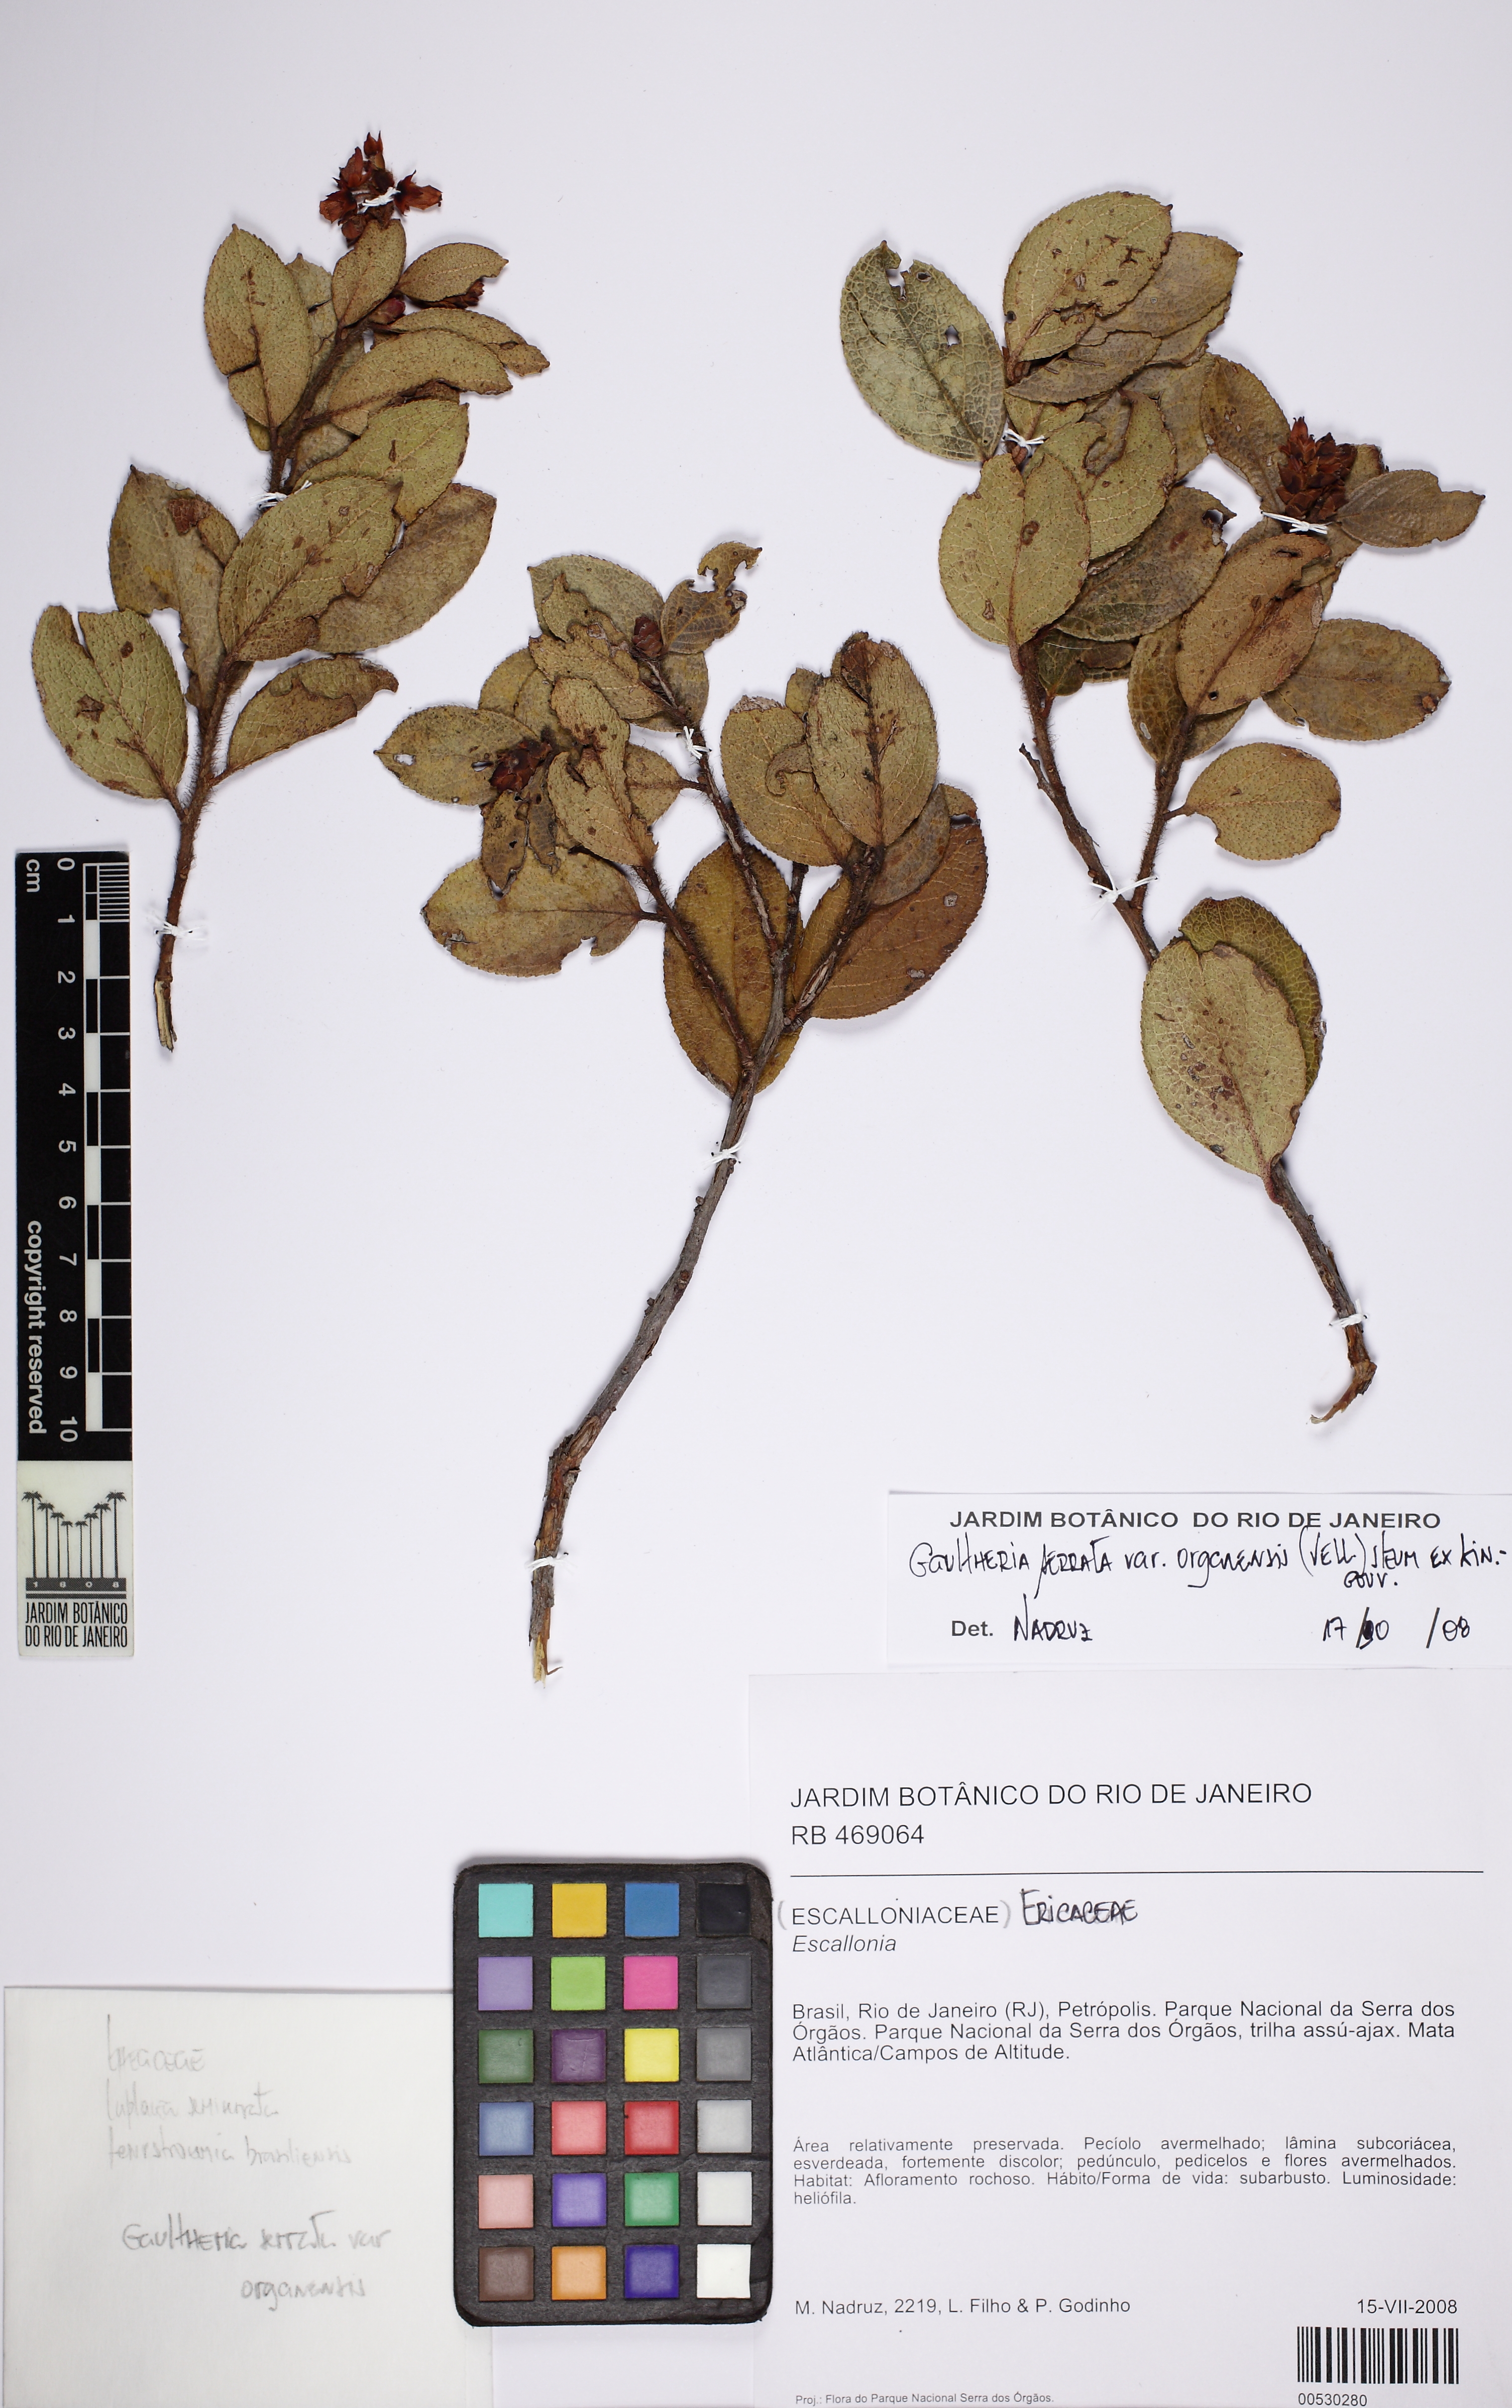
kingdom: Plantae
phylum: Tracheophyta
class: Magnoliopsida
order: Ericales
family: Ericaceae
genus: Gaultheria
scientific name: Gaultheria serrata
